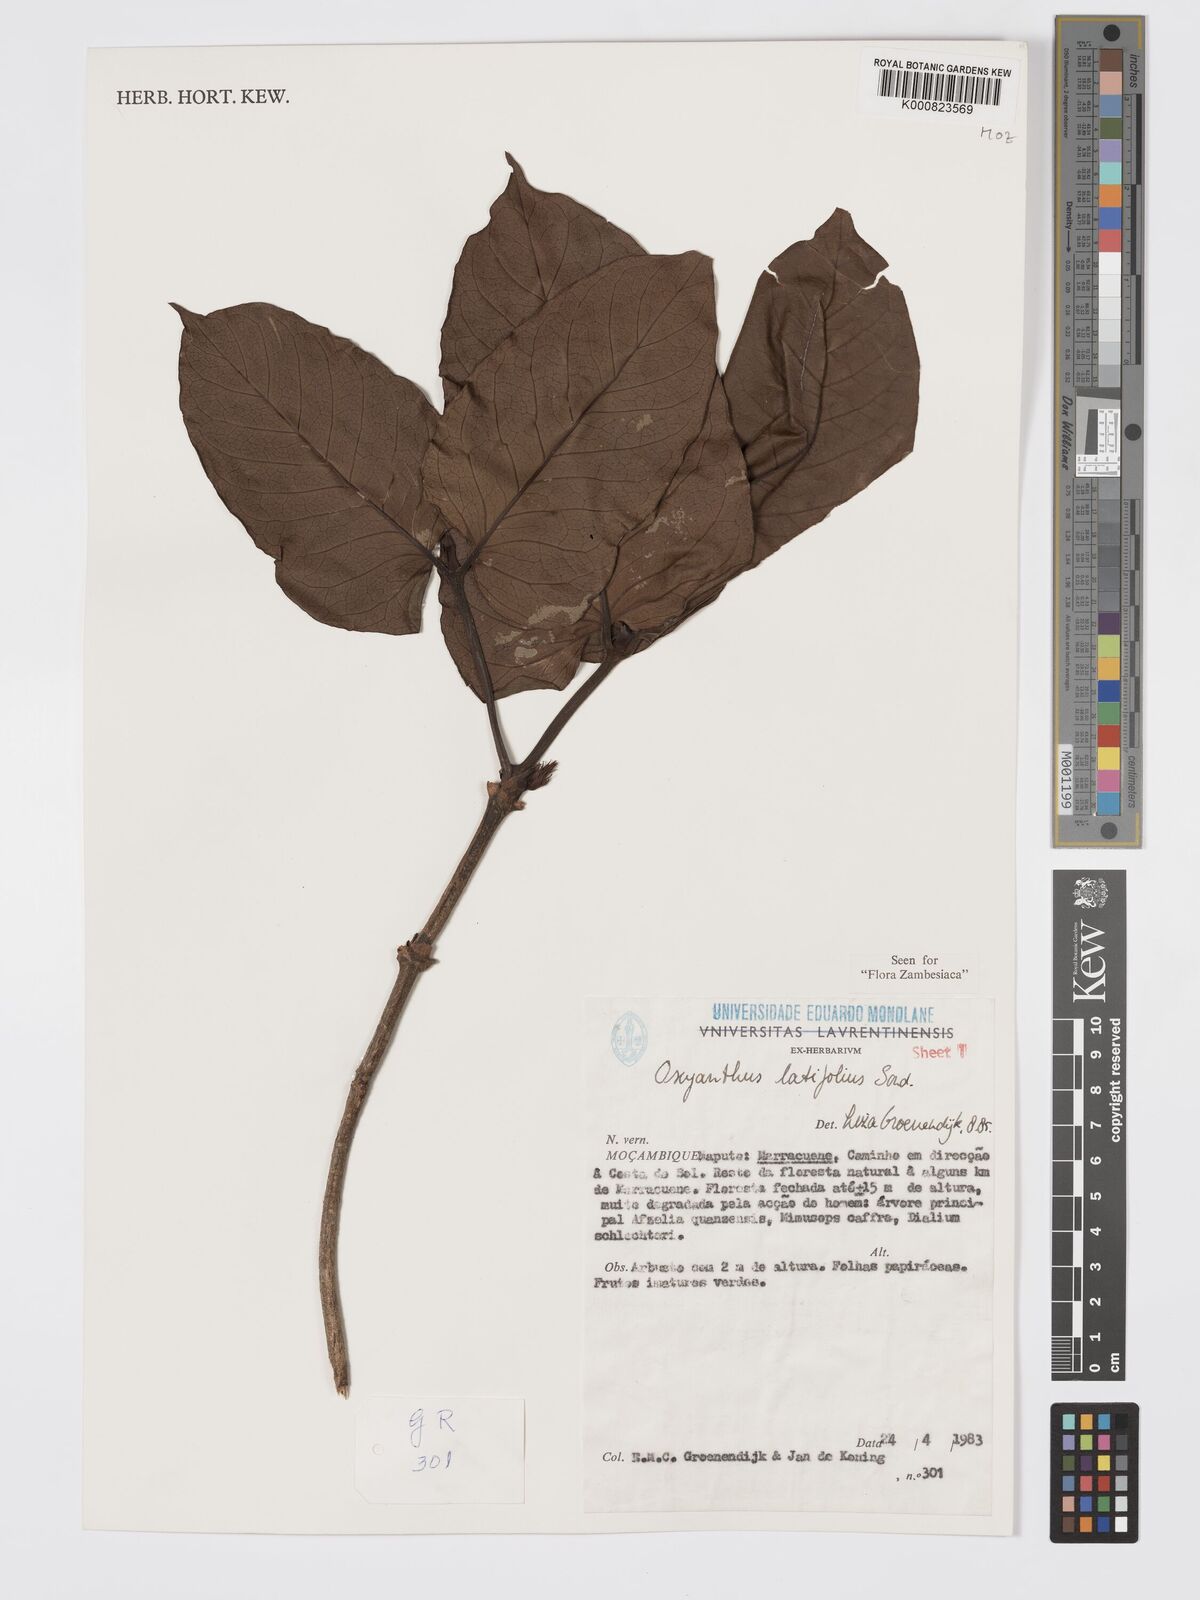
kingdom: Plantae
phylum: Tracheophyta
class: Magnoliopsida
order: Gentianales
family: Rubiaceae
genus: Oxyanthus
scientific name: Oxyanthus latifolius
